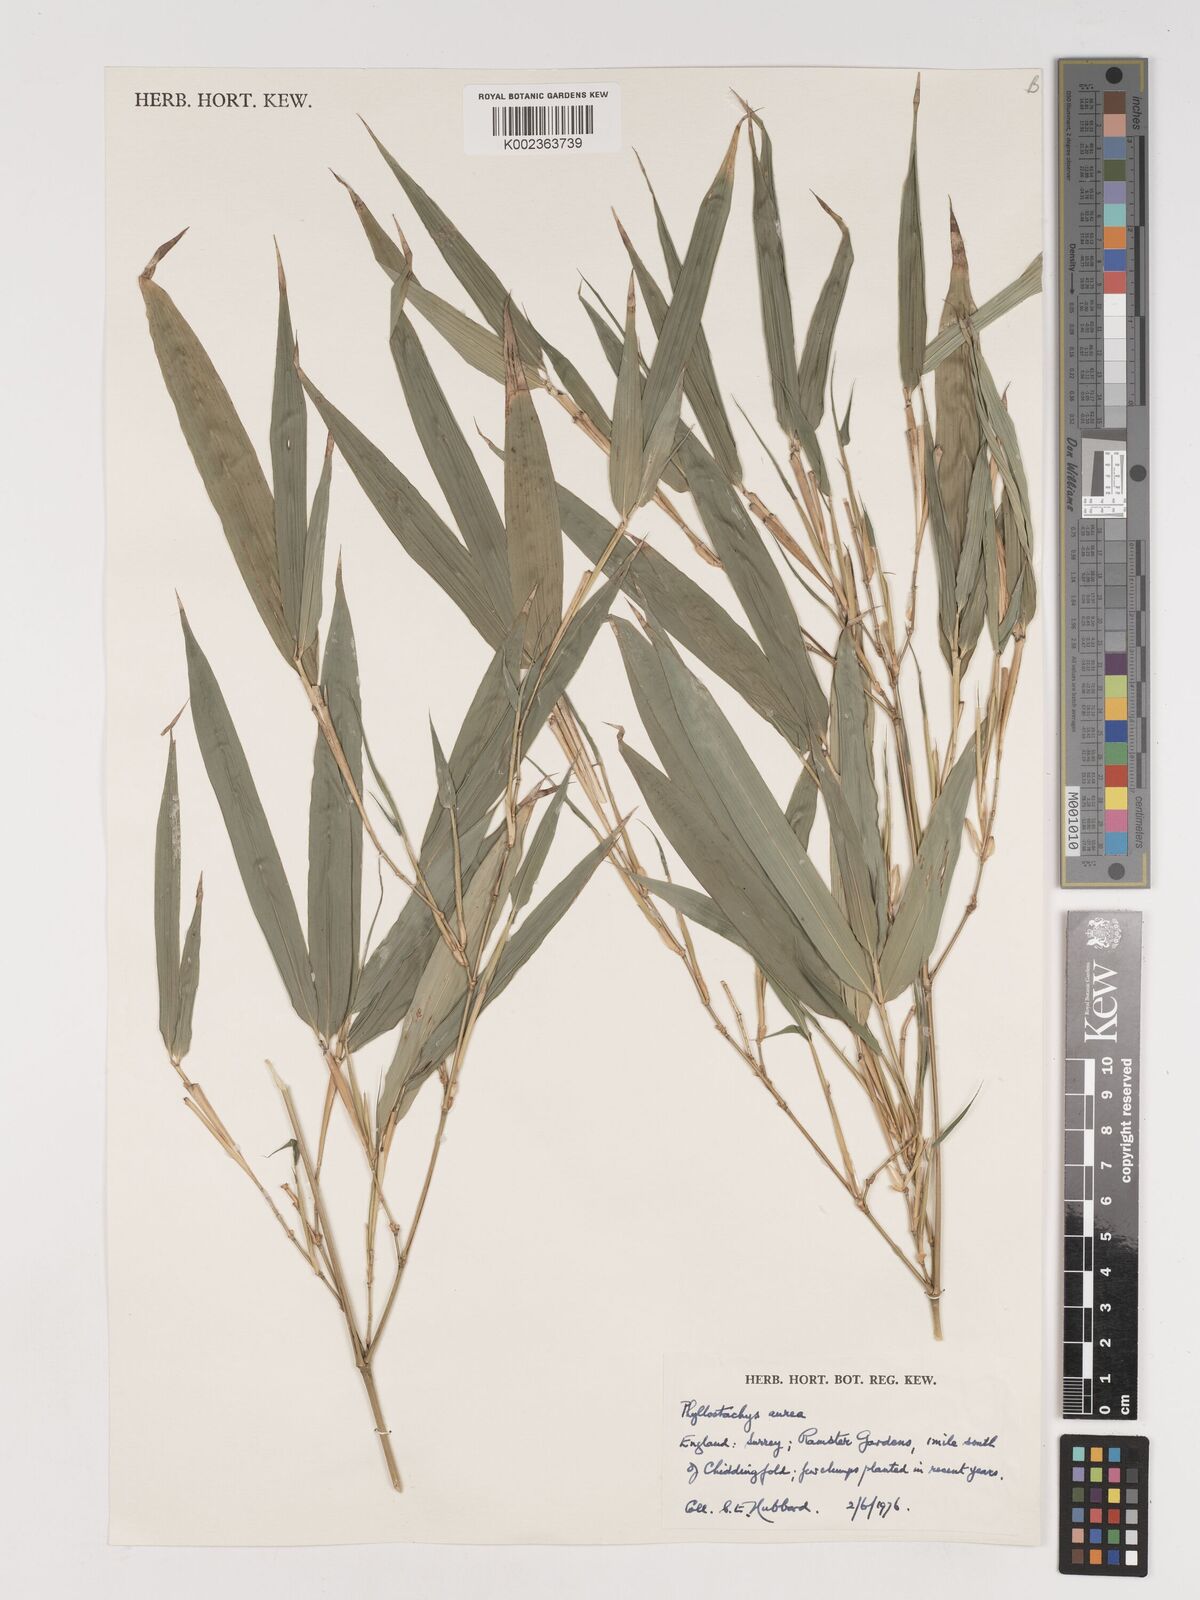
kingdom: Plantae
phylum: Tracheophyta
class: Liliopsida
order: Poales
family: Poaceae
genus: Phyllostachys
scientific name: Phyllostachys aurea
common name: Golden bamboo
